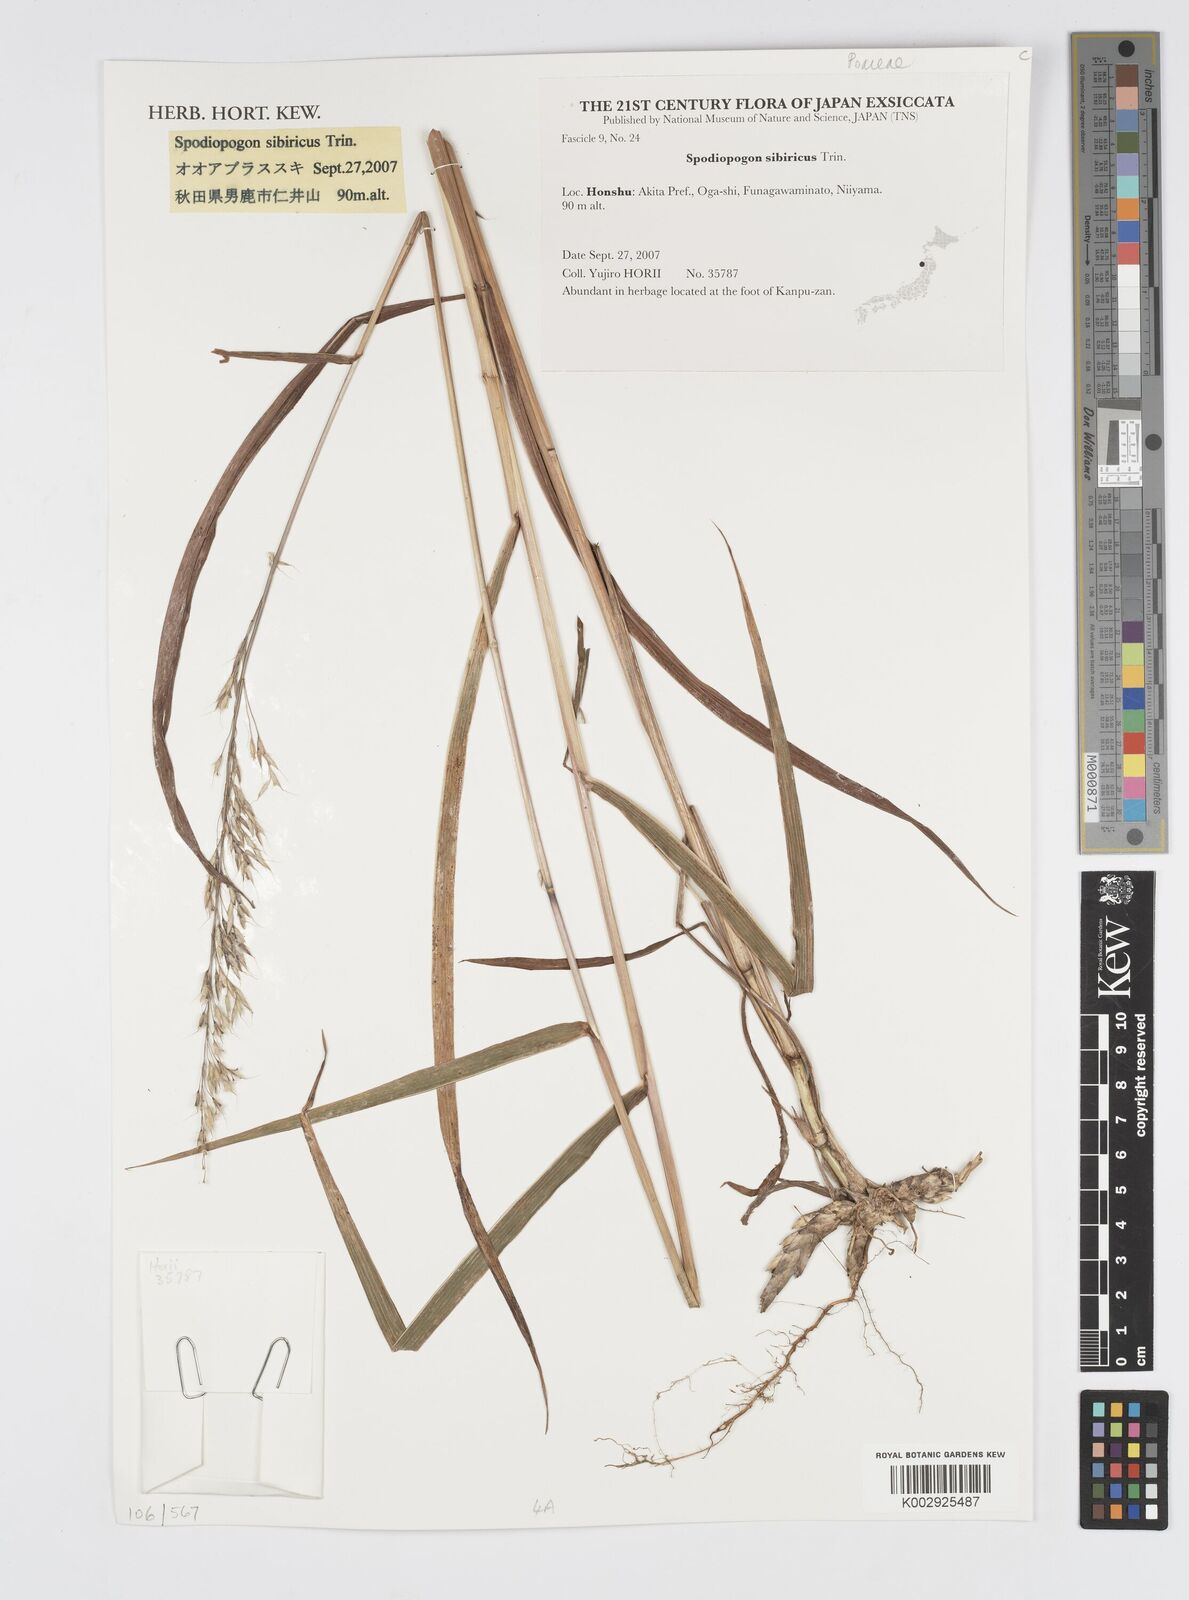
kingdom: Plantae
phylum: Tracheophyta
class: Liliopsida
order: Poales
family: Poaceae
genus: Spodiopogon
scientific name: Spodiopogon sibiricus
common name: Siberian graybeard
